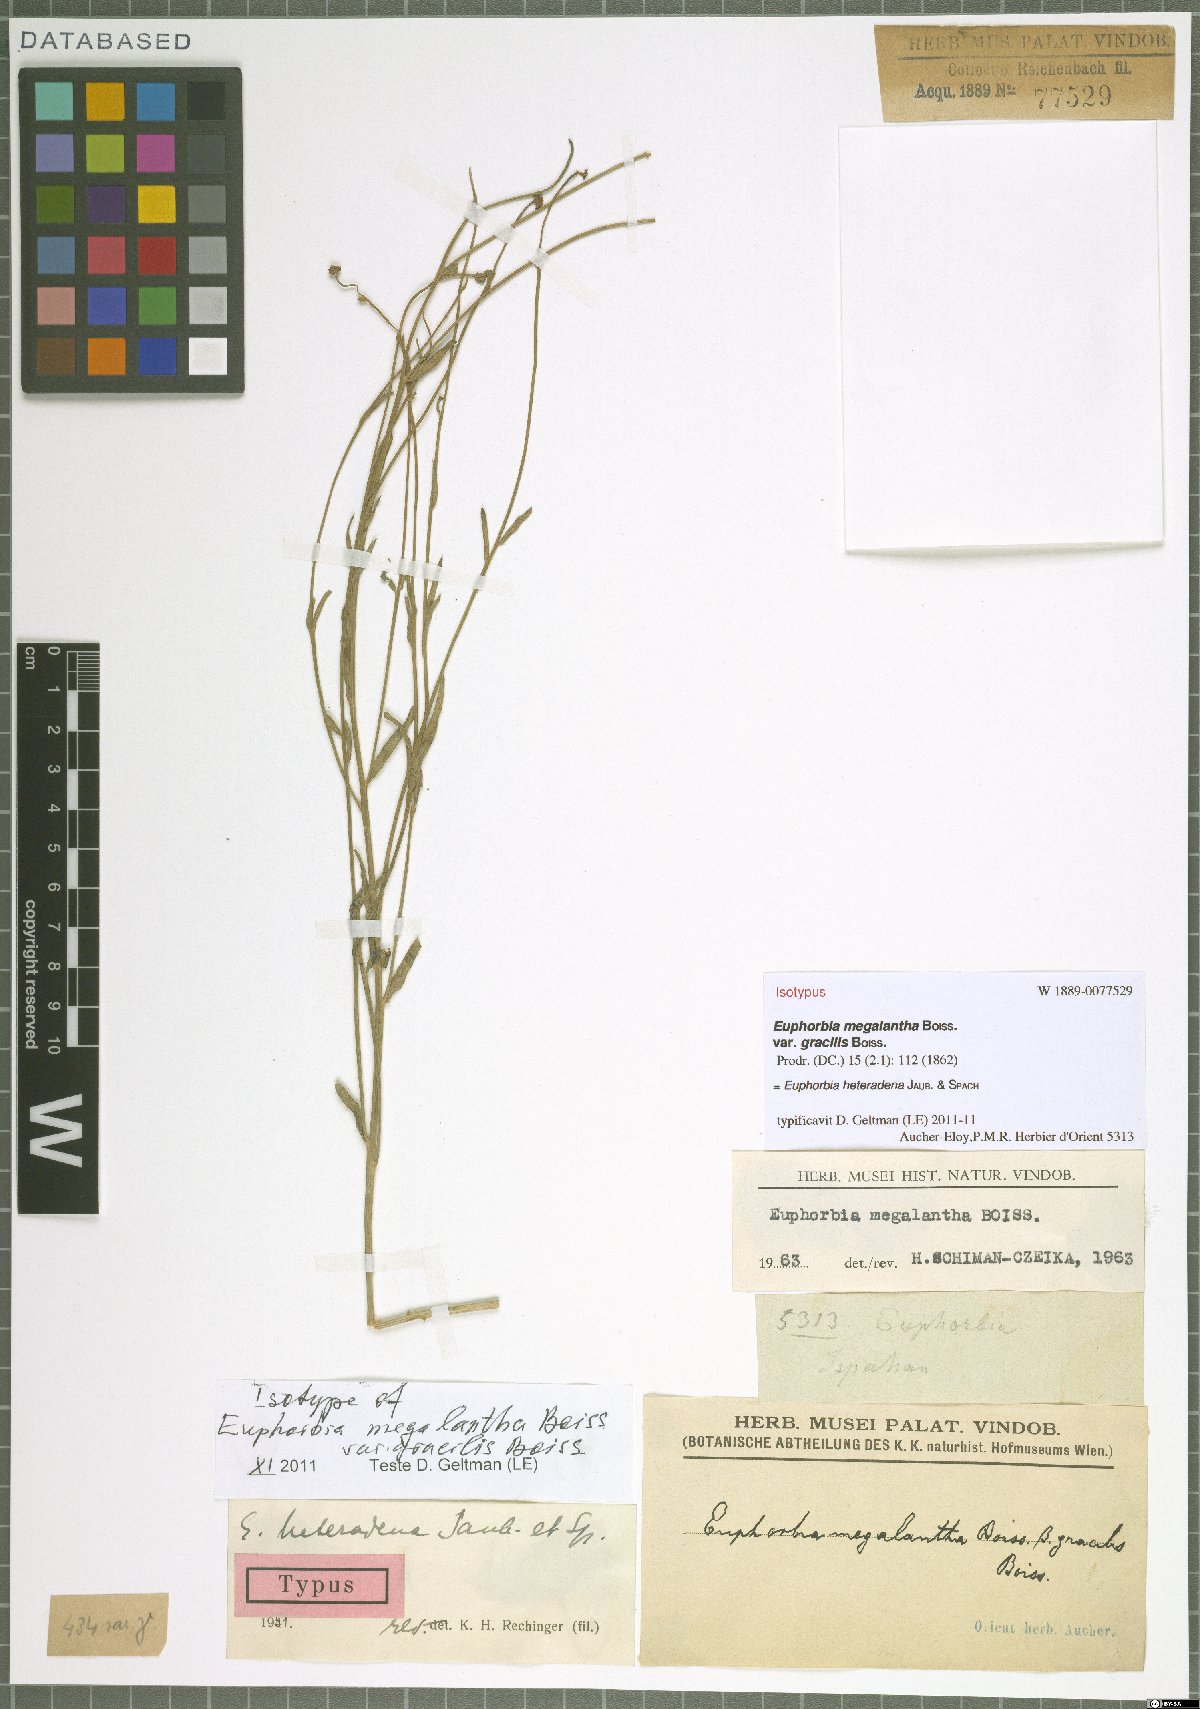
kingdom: Plantae
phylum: Tracheophyta
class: Magnoliopsida
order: Malpighiales
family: Euphorbiaceae
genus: Euphorbia
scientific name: Euphorbia heteradena
